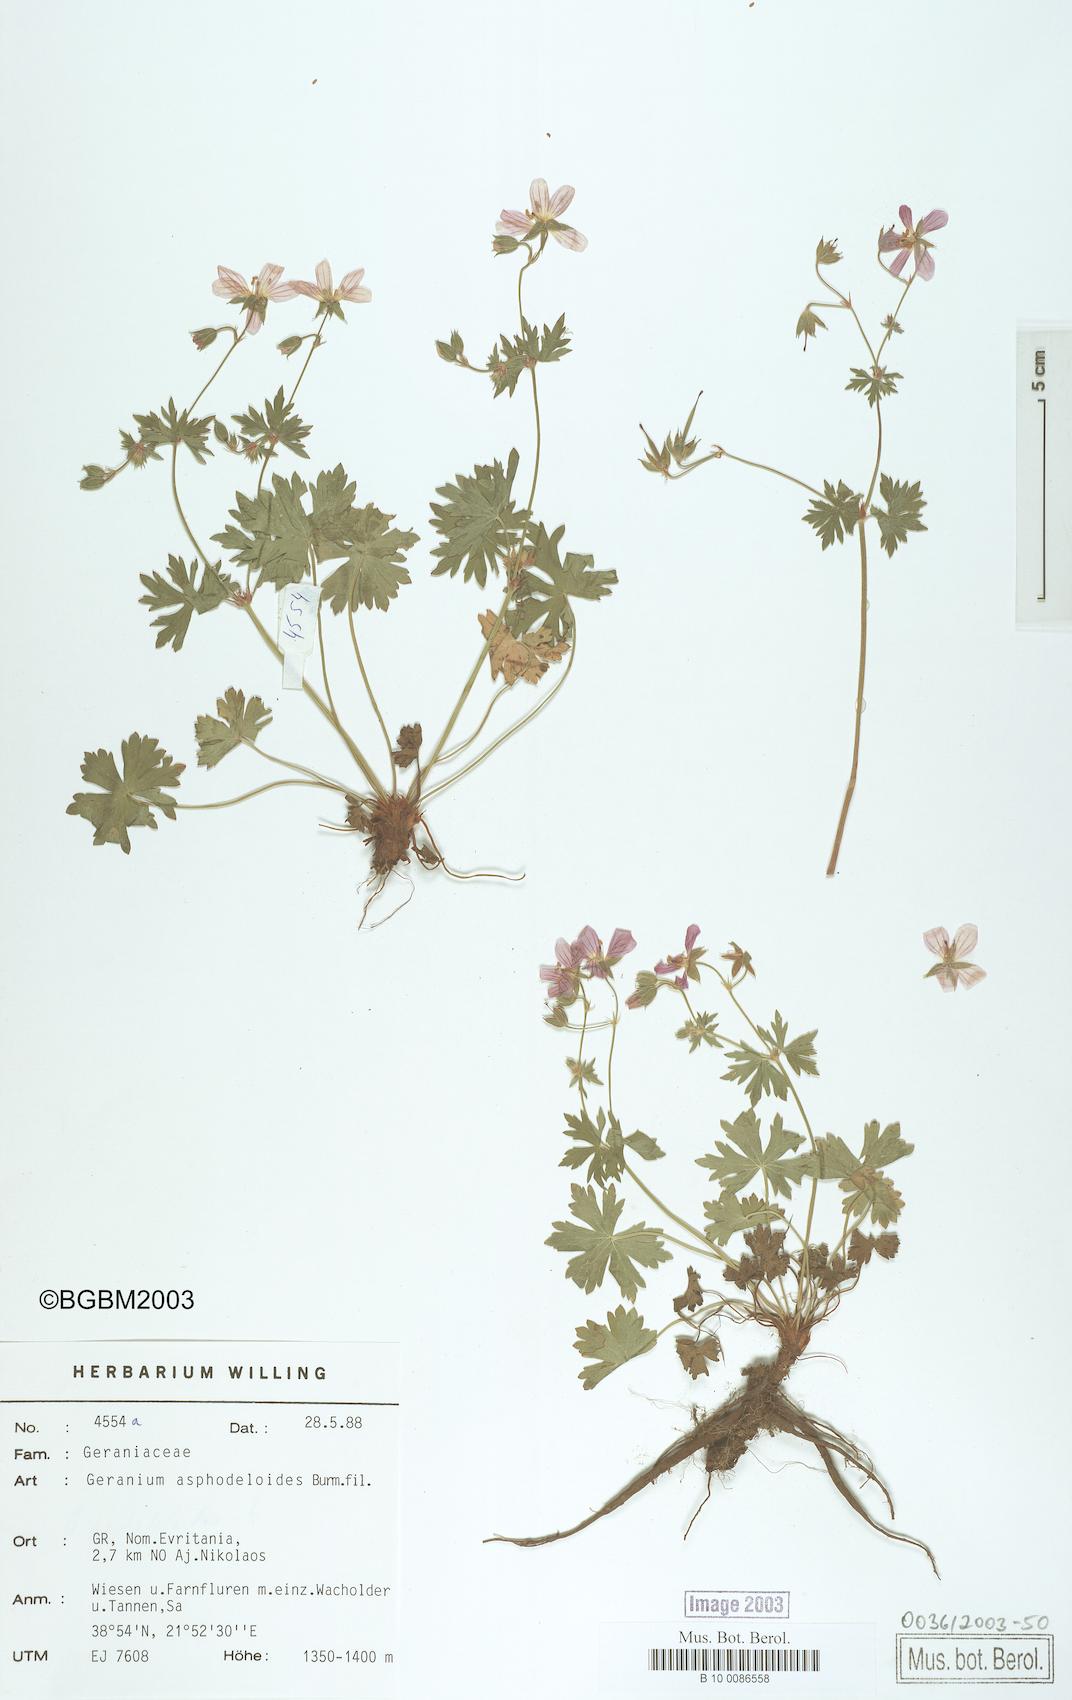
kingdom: Plantae
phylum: Tracheophyta
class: Magnoliopsida
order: Geraniales
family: Geraniaceae
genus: Geranium
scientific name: Geranium asphodeloides
